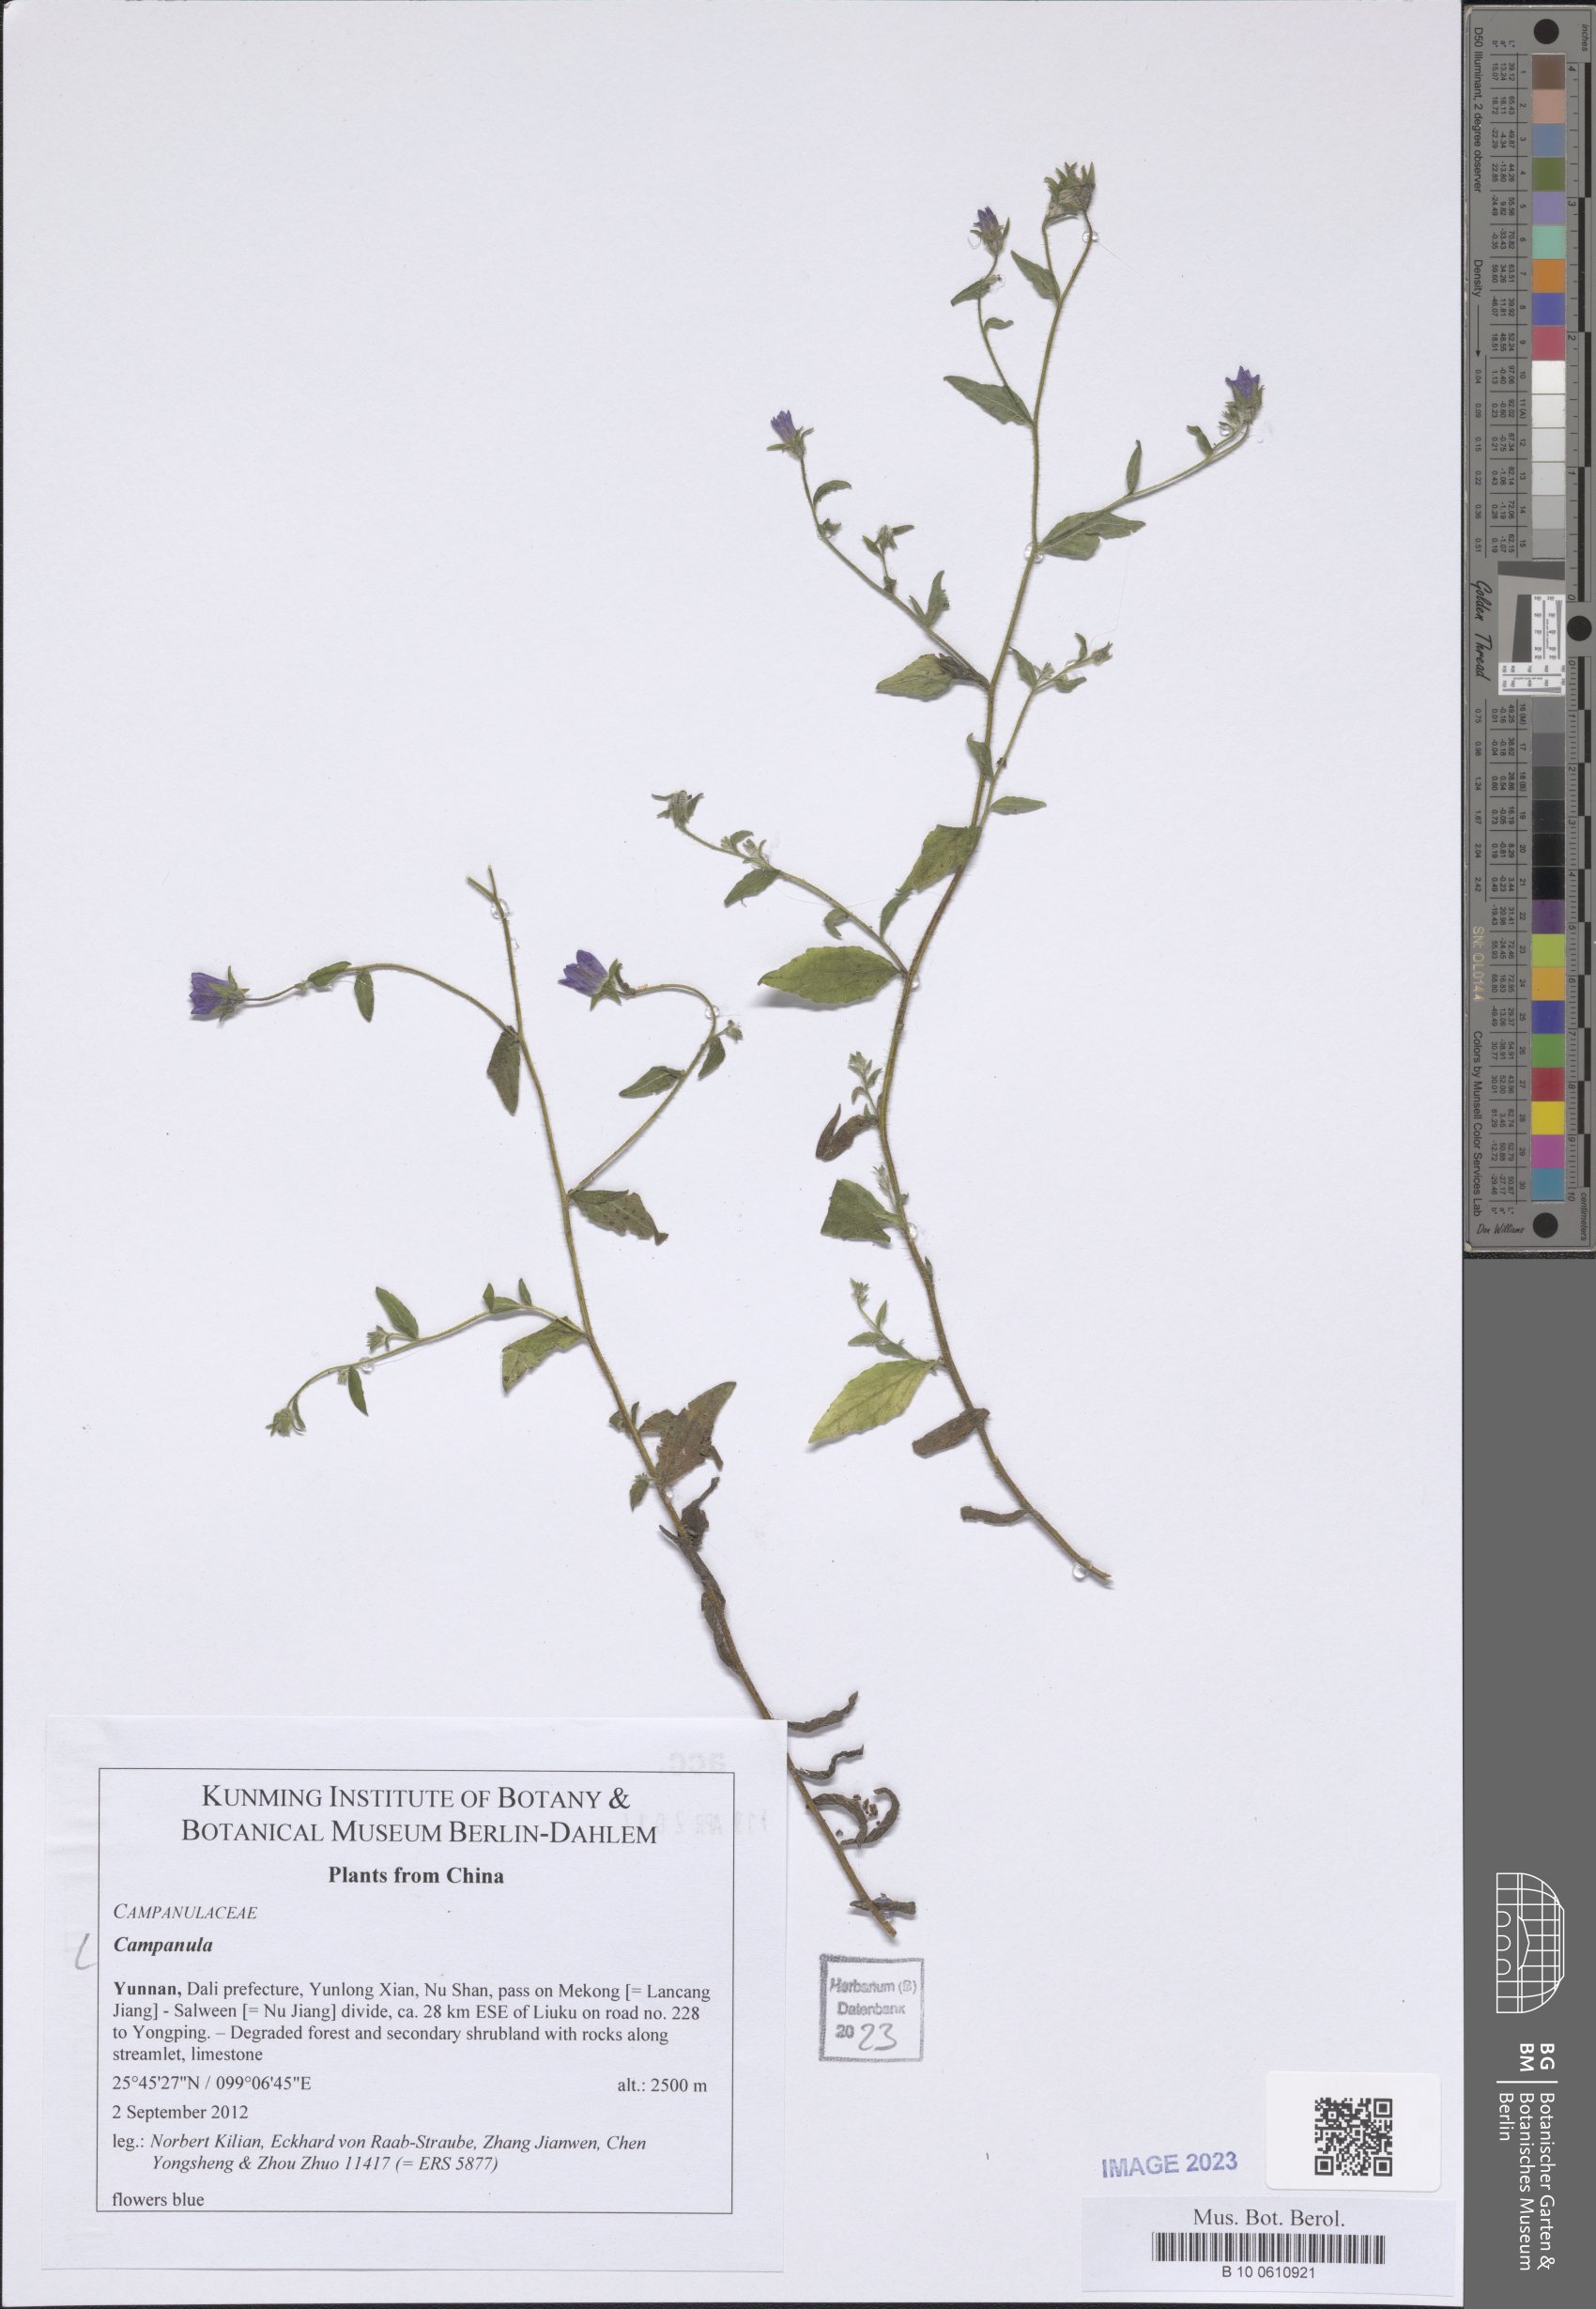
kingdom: Plantae
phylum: Tracheophyta
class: Magnoliopsida
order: Asterales
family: Campanulaceae
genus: Campanula
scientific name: Campanula
